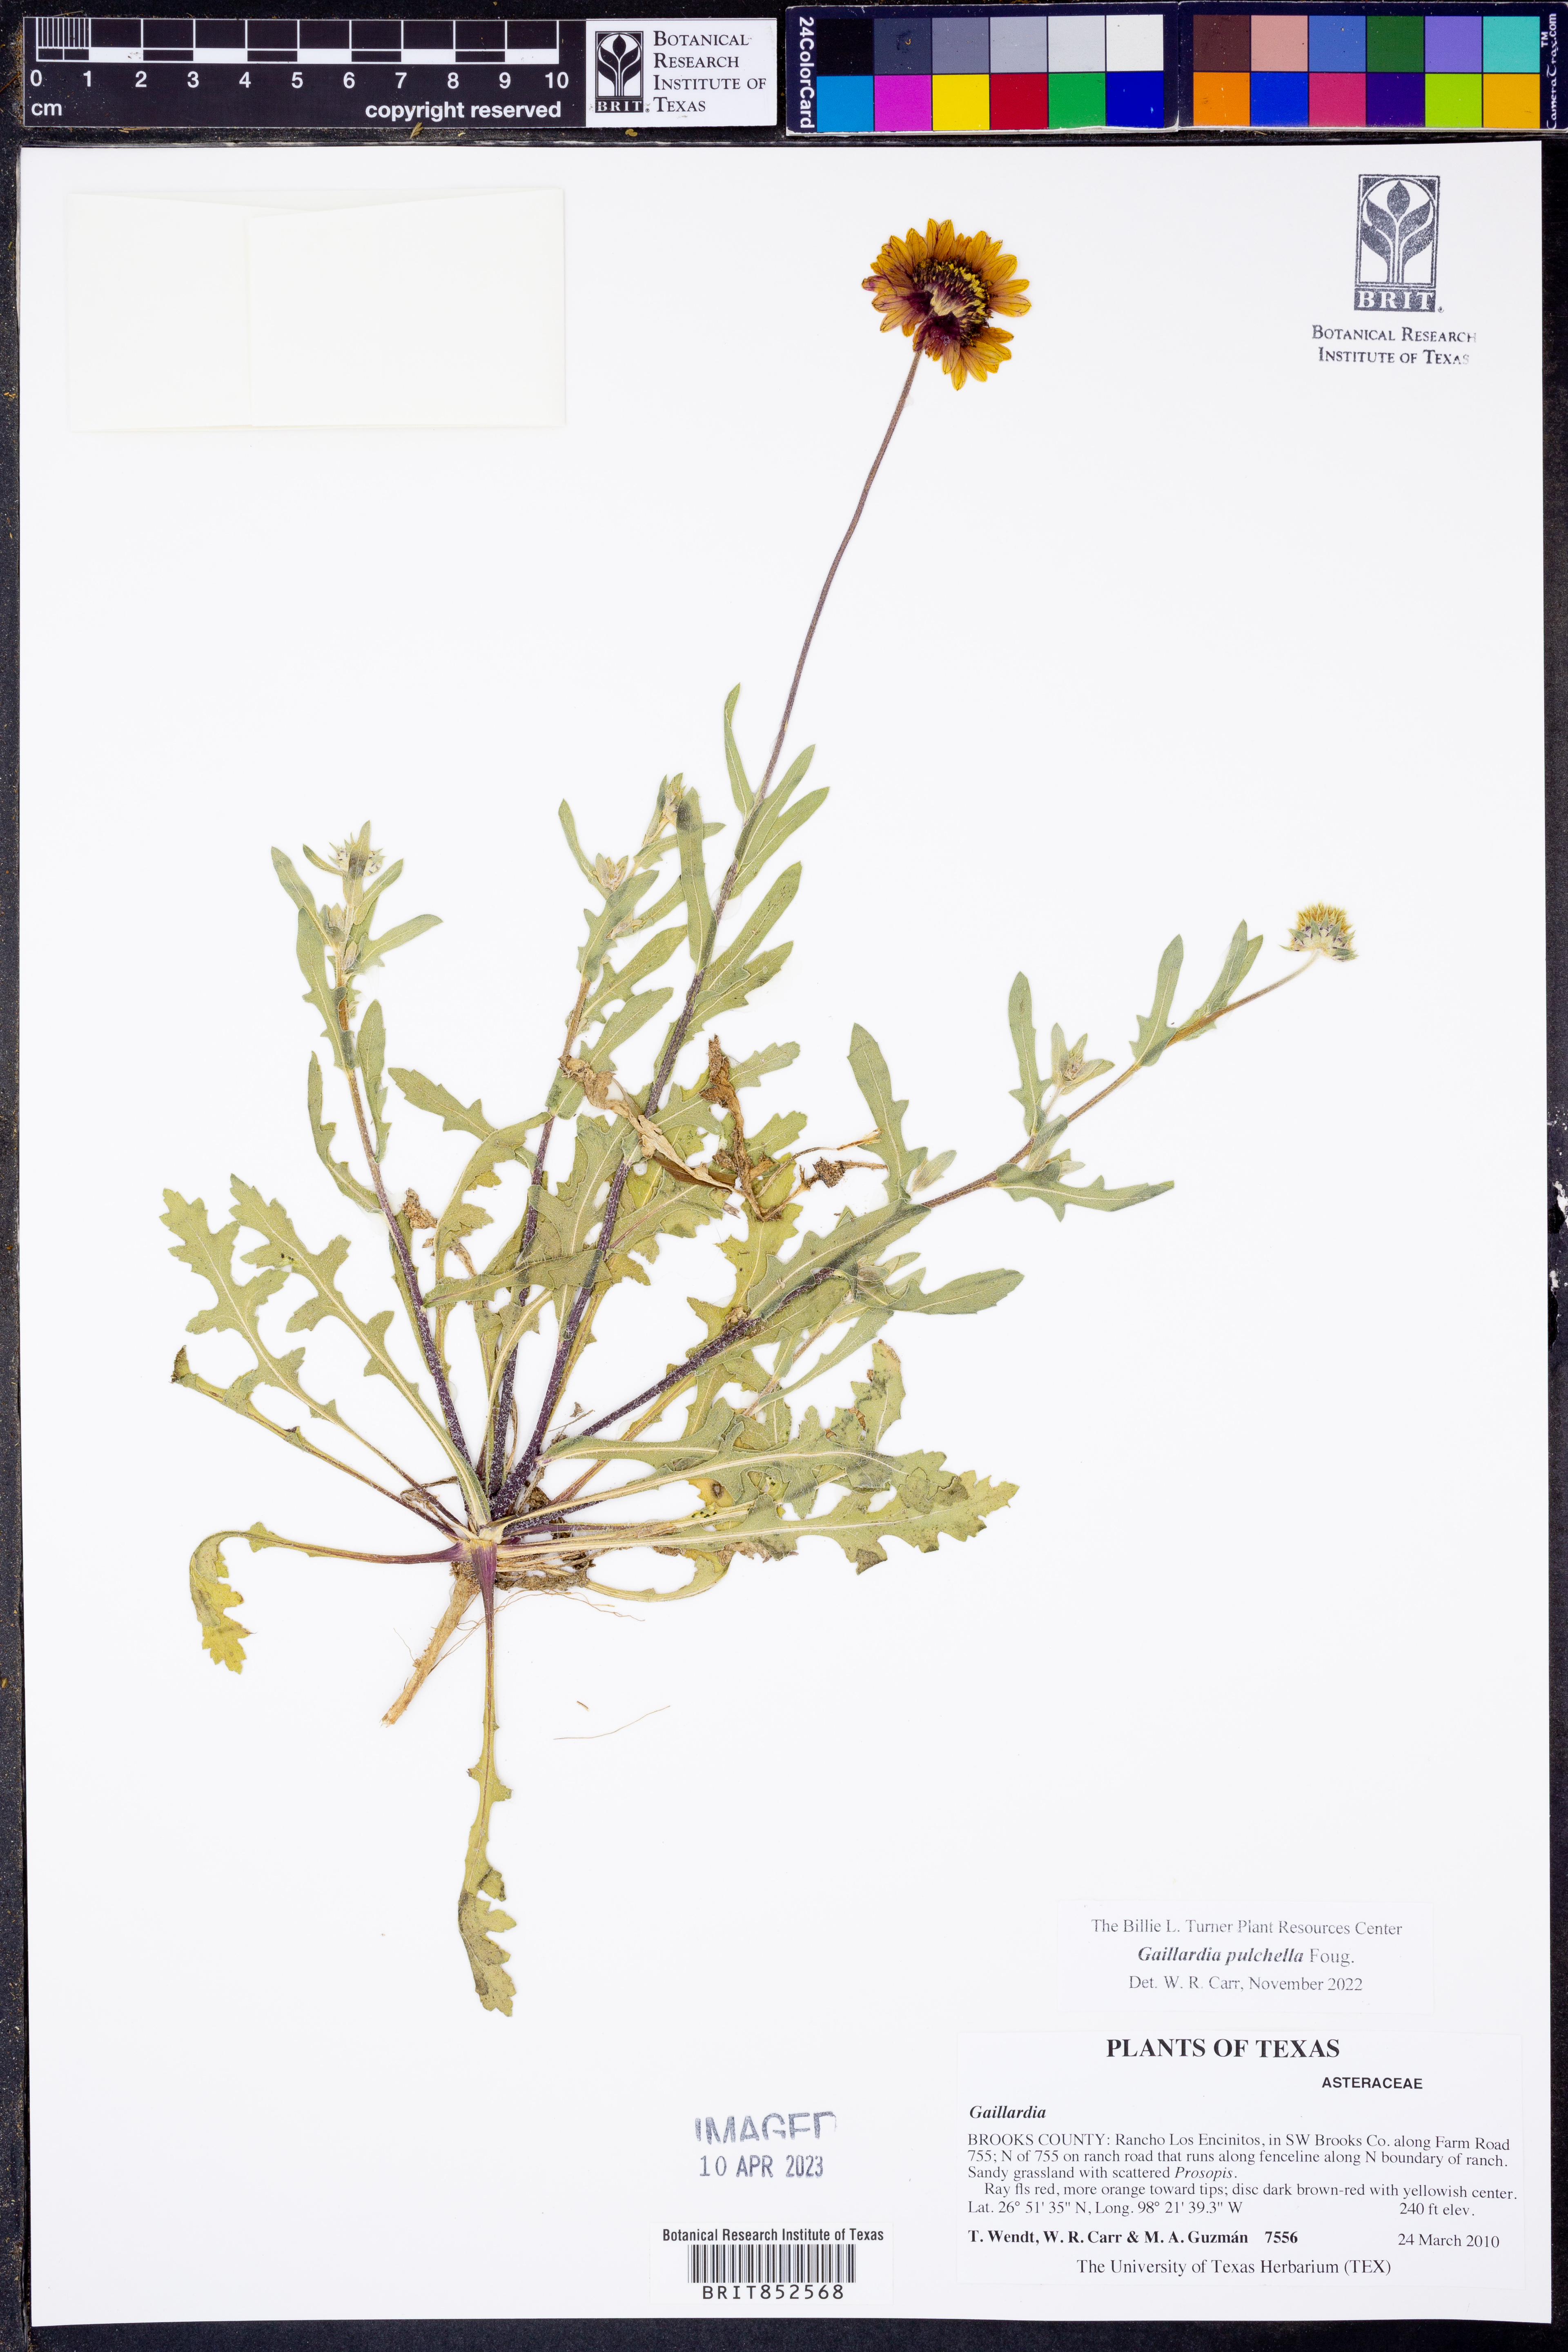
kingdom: Plantae
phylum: Tracheophyta
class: Magnoliopsida
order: Asterales
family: Asteraceae
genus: Gaillardia
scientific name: Gaillardia pulchella
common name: Firewheel
